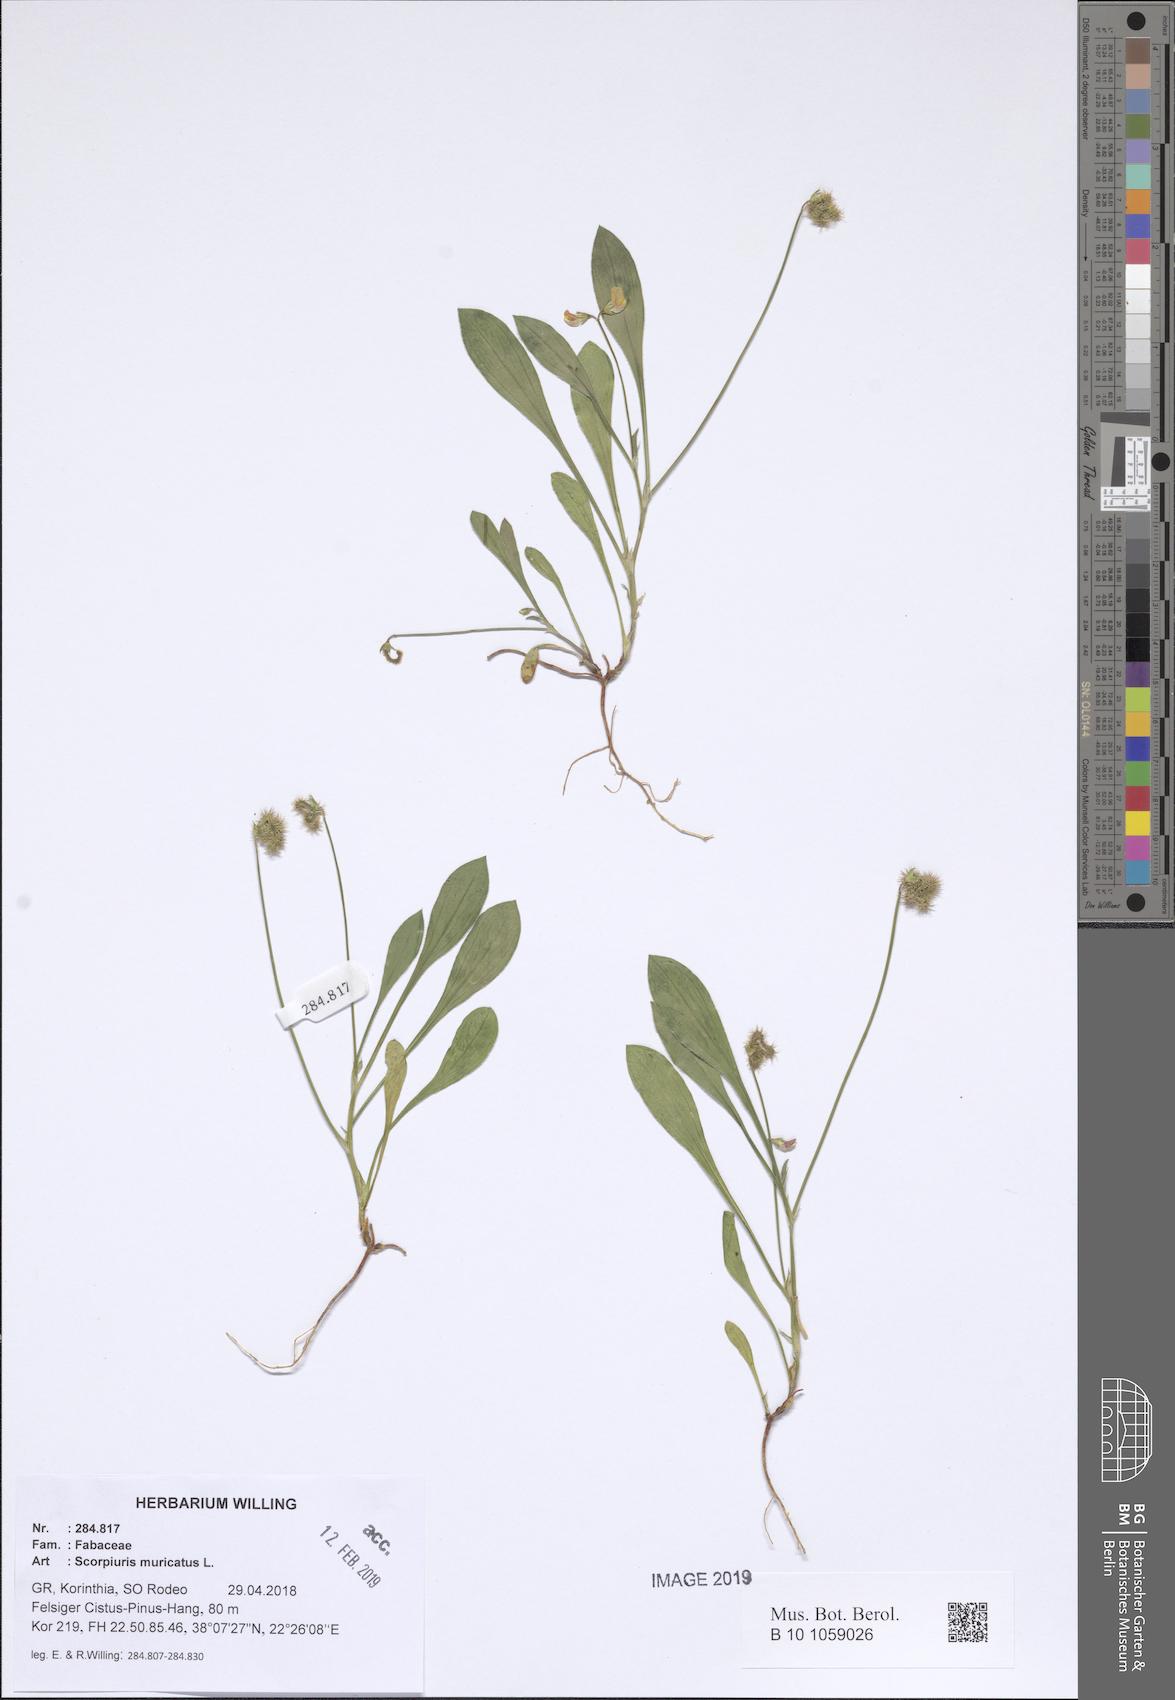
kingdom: Plantae
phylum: Tracheophyta
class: Magnoliopsida
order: Fabales
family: Fabaceae
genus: Scorpiurus
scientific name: Scorpiurus muricatus
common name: Caterpillar-plant
